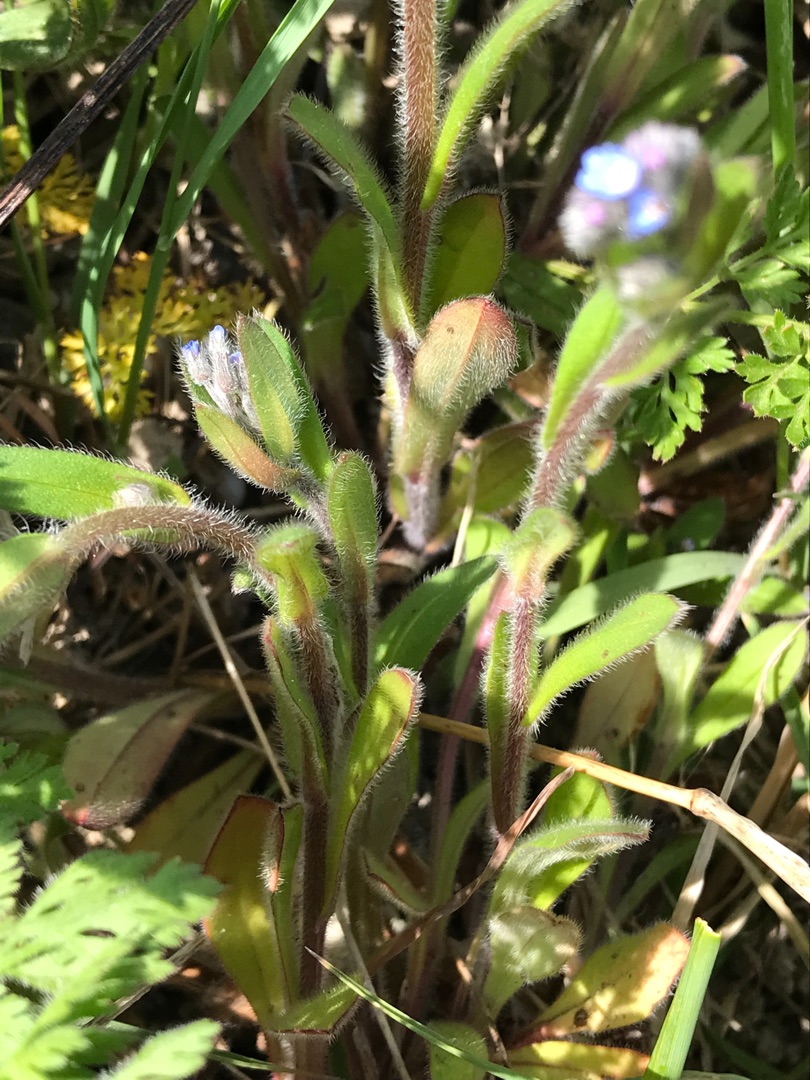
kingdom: Plantae
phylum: Tracheophyta
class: Magnoliopsida
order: Boraginales
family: Boraginaceae
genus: Myosotis
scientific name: Myosotis
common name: Forglemmigejslægten
